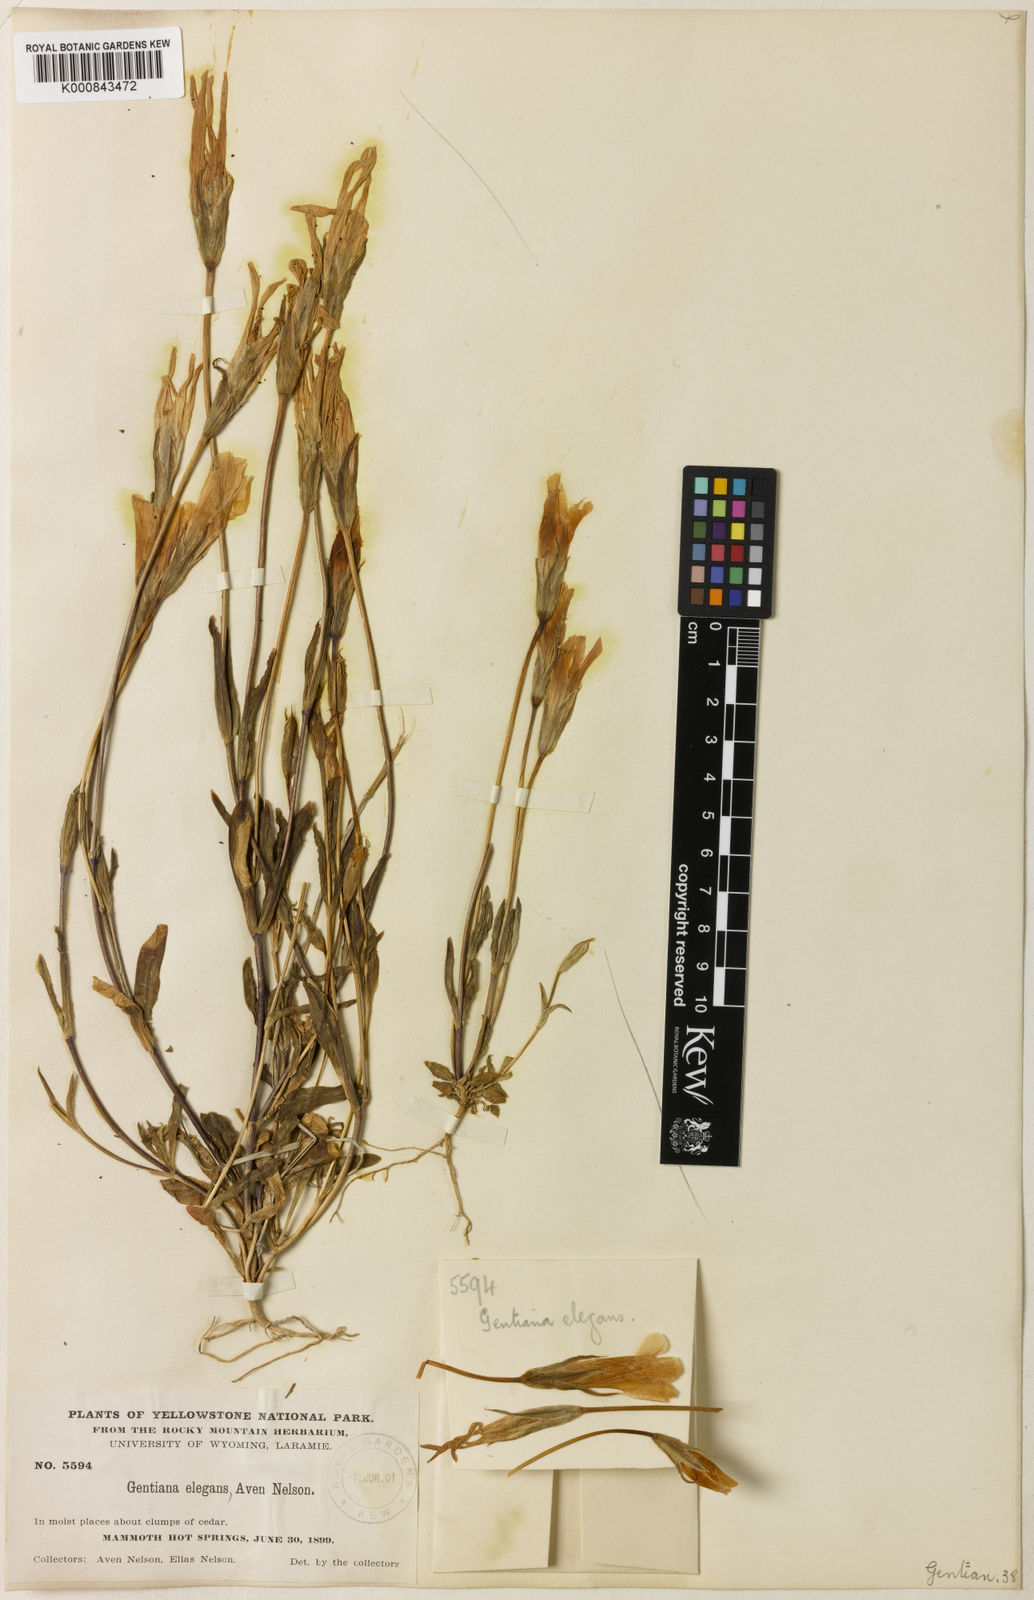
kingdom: Plantae
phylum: Tracheophyta
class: Magnoliopsida
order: Gentianales
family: Gentianaceae
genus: Gentianopsis
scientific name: Gentianopsis thermalis
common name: Rocky mountain fringed-gentian
